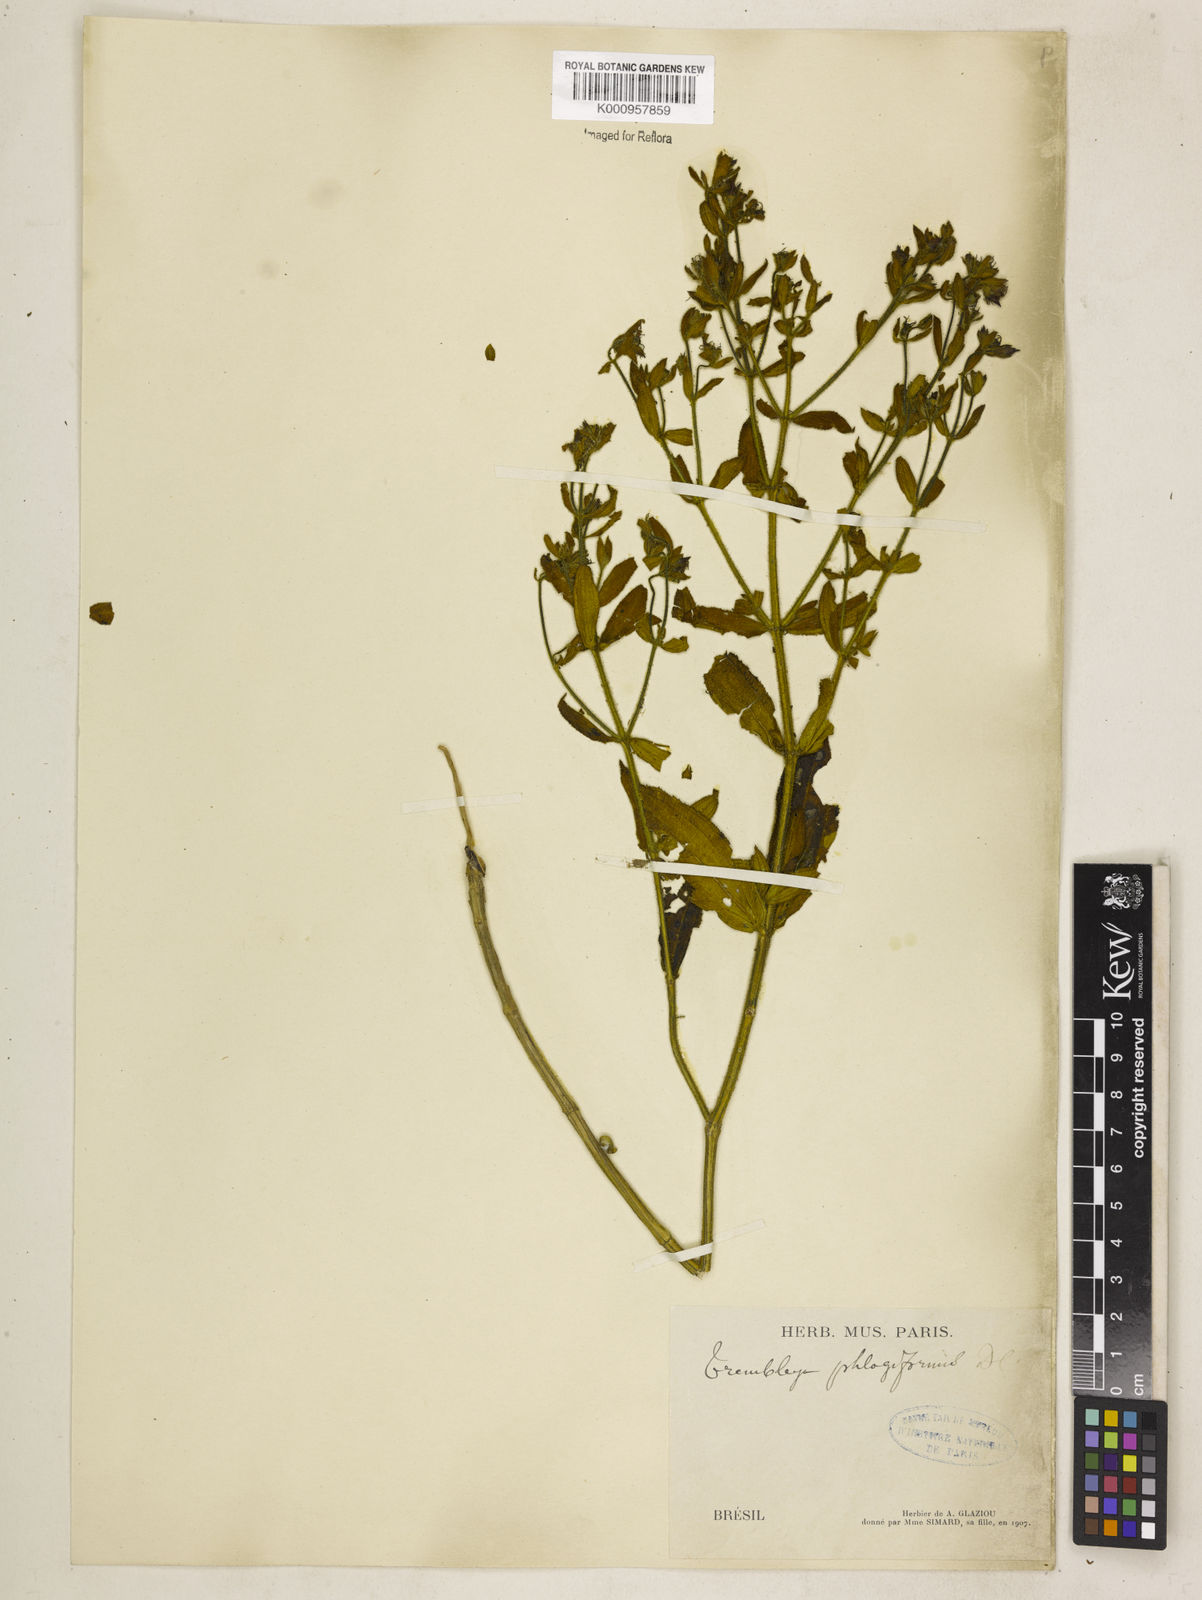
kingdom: Plantae
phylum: Tracheophyta
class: Magnoliopsida
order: Myrtales
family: Melastomataceae
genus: Microlicia
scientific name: Microlicia phlogiformis
